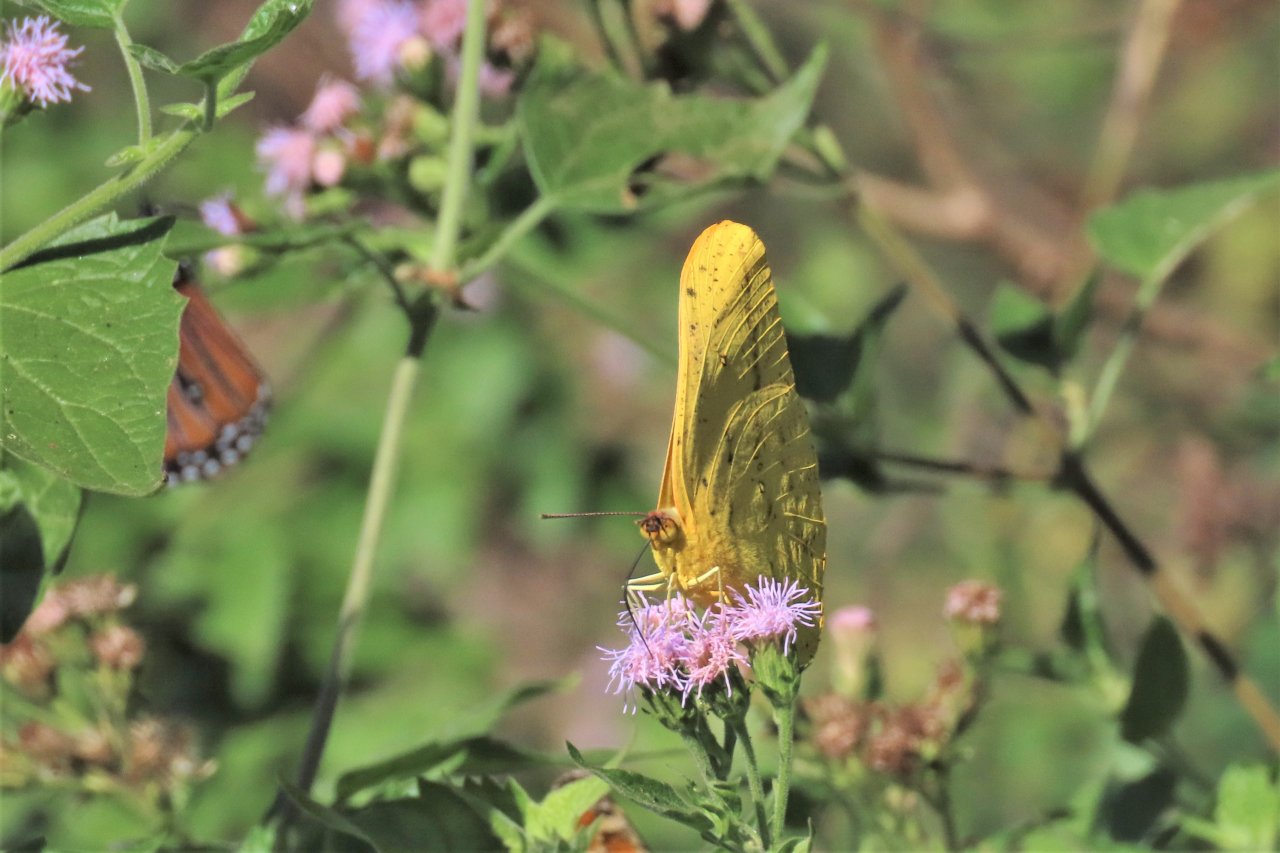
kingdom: Animalia
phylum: Arthropoda
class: Insecta
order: Lepidoptera
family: Pieridae
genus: Phoebis
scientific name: Phoebis agarithe
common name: Large Orange Sulphur
